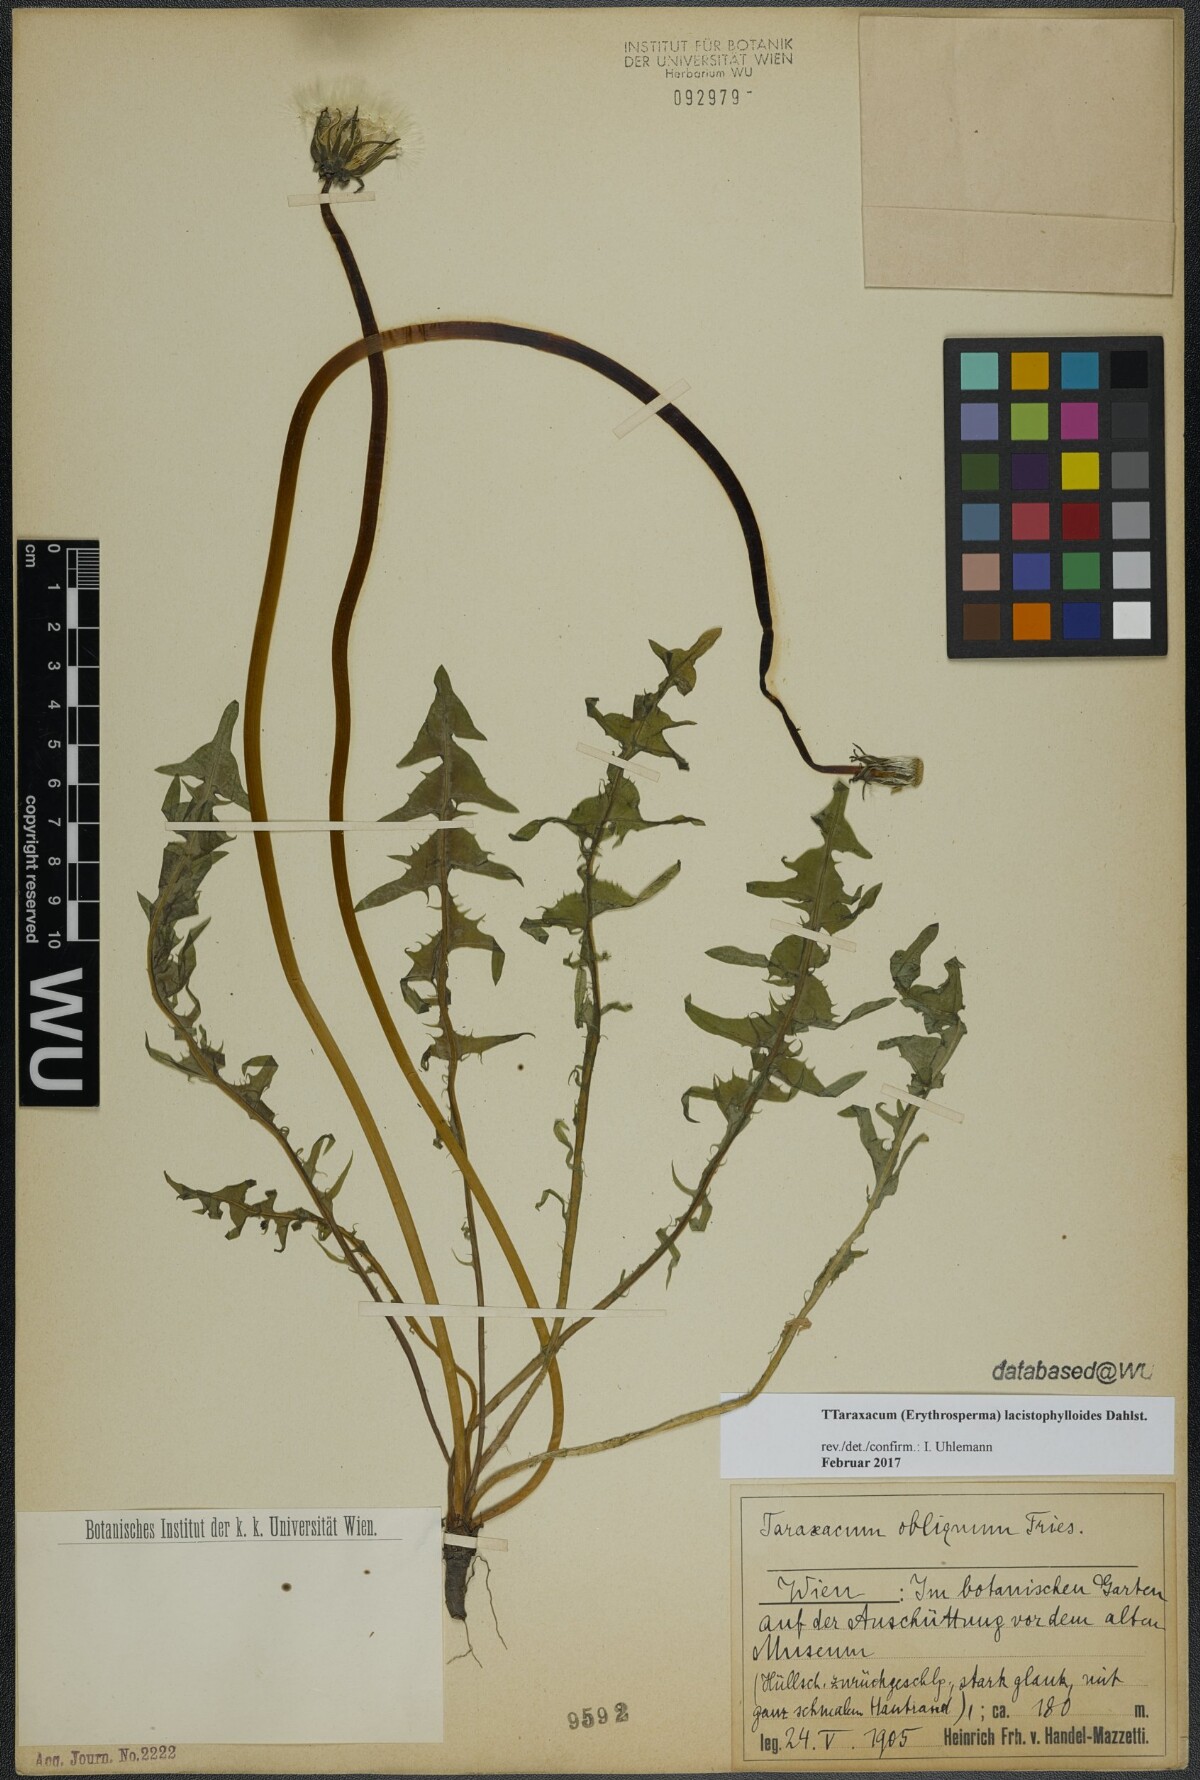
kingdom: Plantae
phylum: Tracheophyta
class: Magnoliopsida
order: Asterales
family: Asteraceae
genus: Taraxacum
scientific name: Taraxacum lacistophylloides
